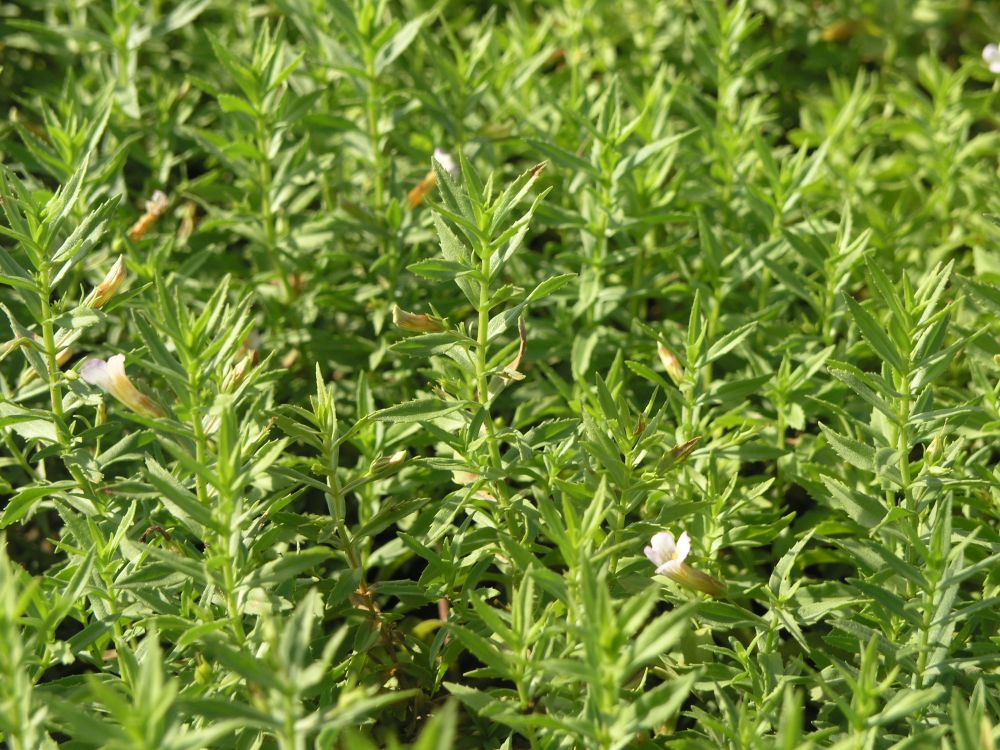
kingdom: Plantae
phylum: Tracheophyta
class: Magnoliopsida
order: Lamiales
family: Plantaginaceae
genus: Gratiola
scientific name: Gratiola officinalis
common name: Gratiola
